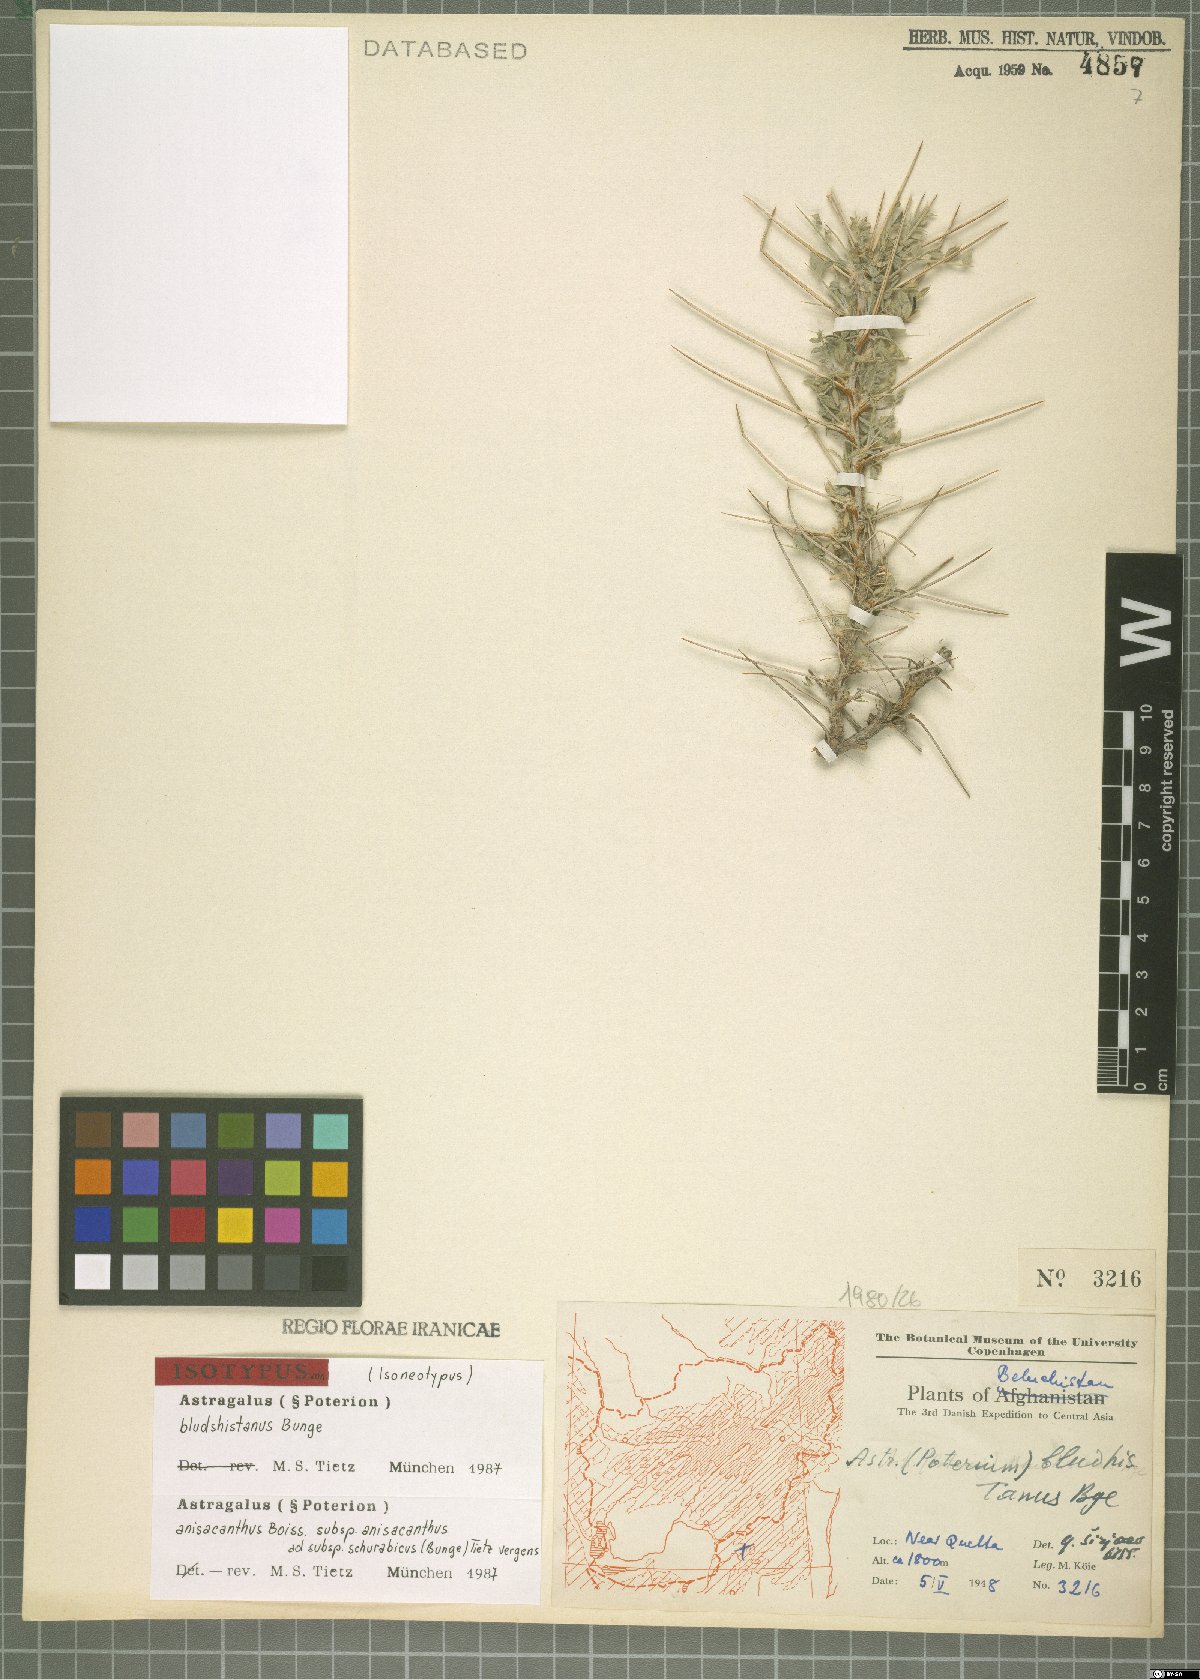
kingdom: Plantae
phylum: Tracheophyta
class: Magnoliopsida
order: Fabales
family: Fabaceae
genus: Astragalus
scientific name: Astragalus anisacanthus
